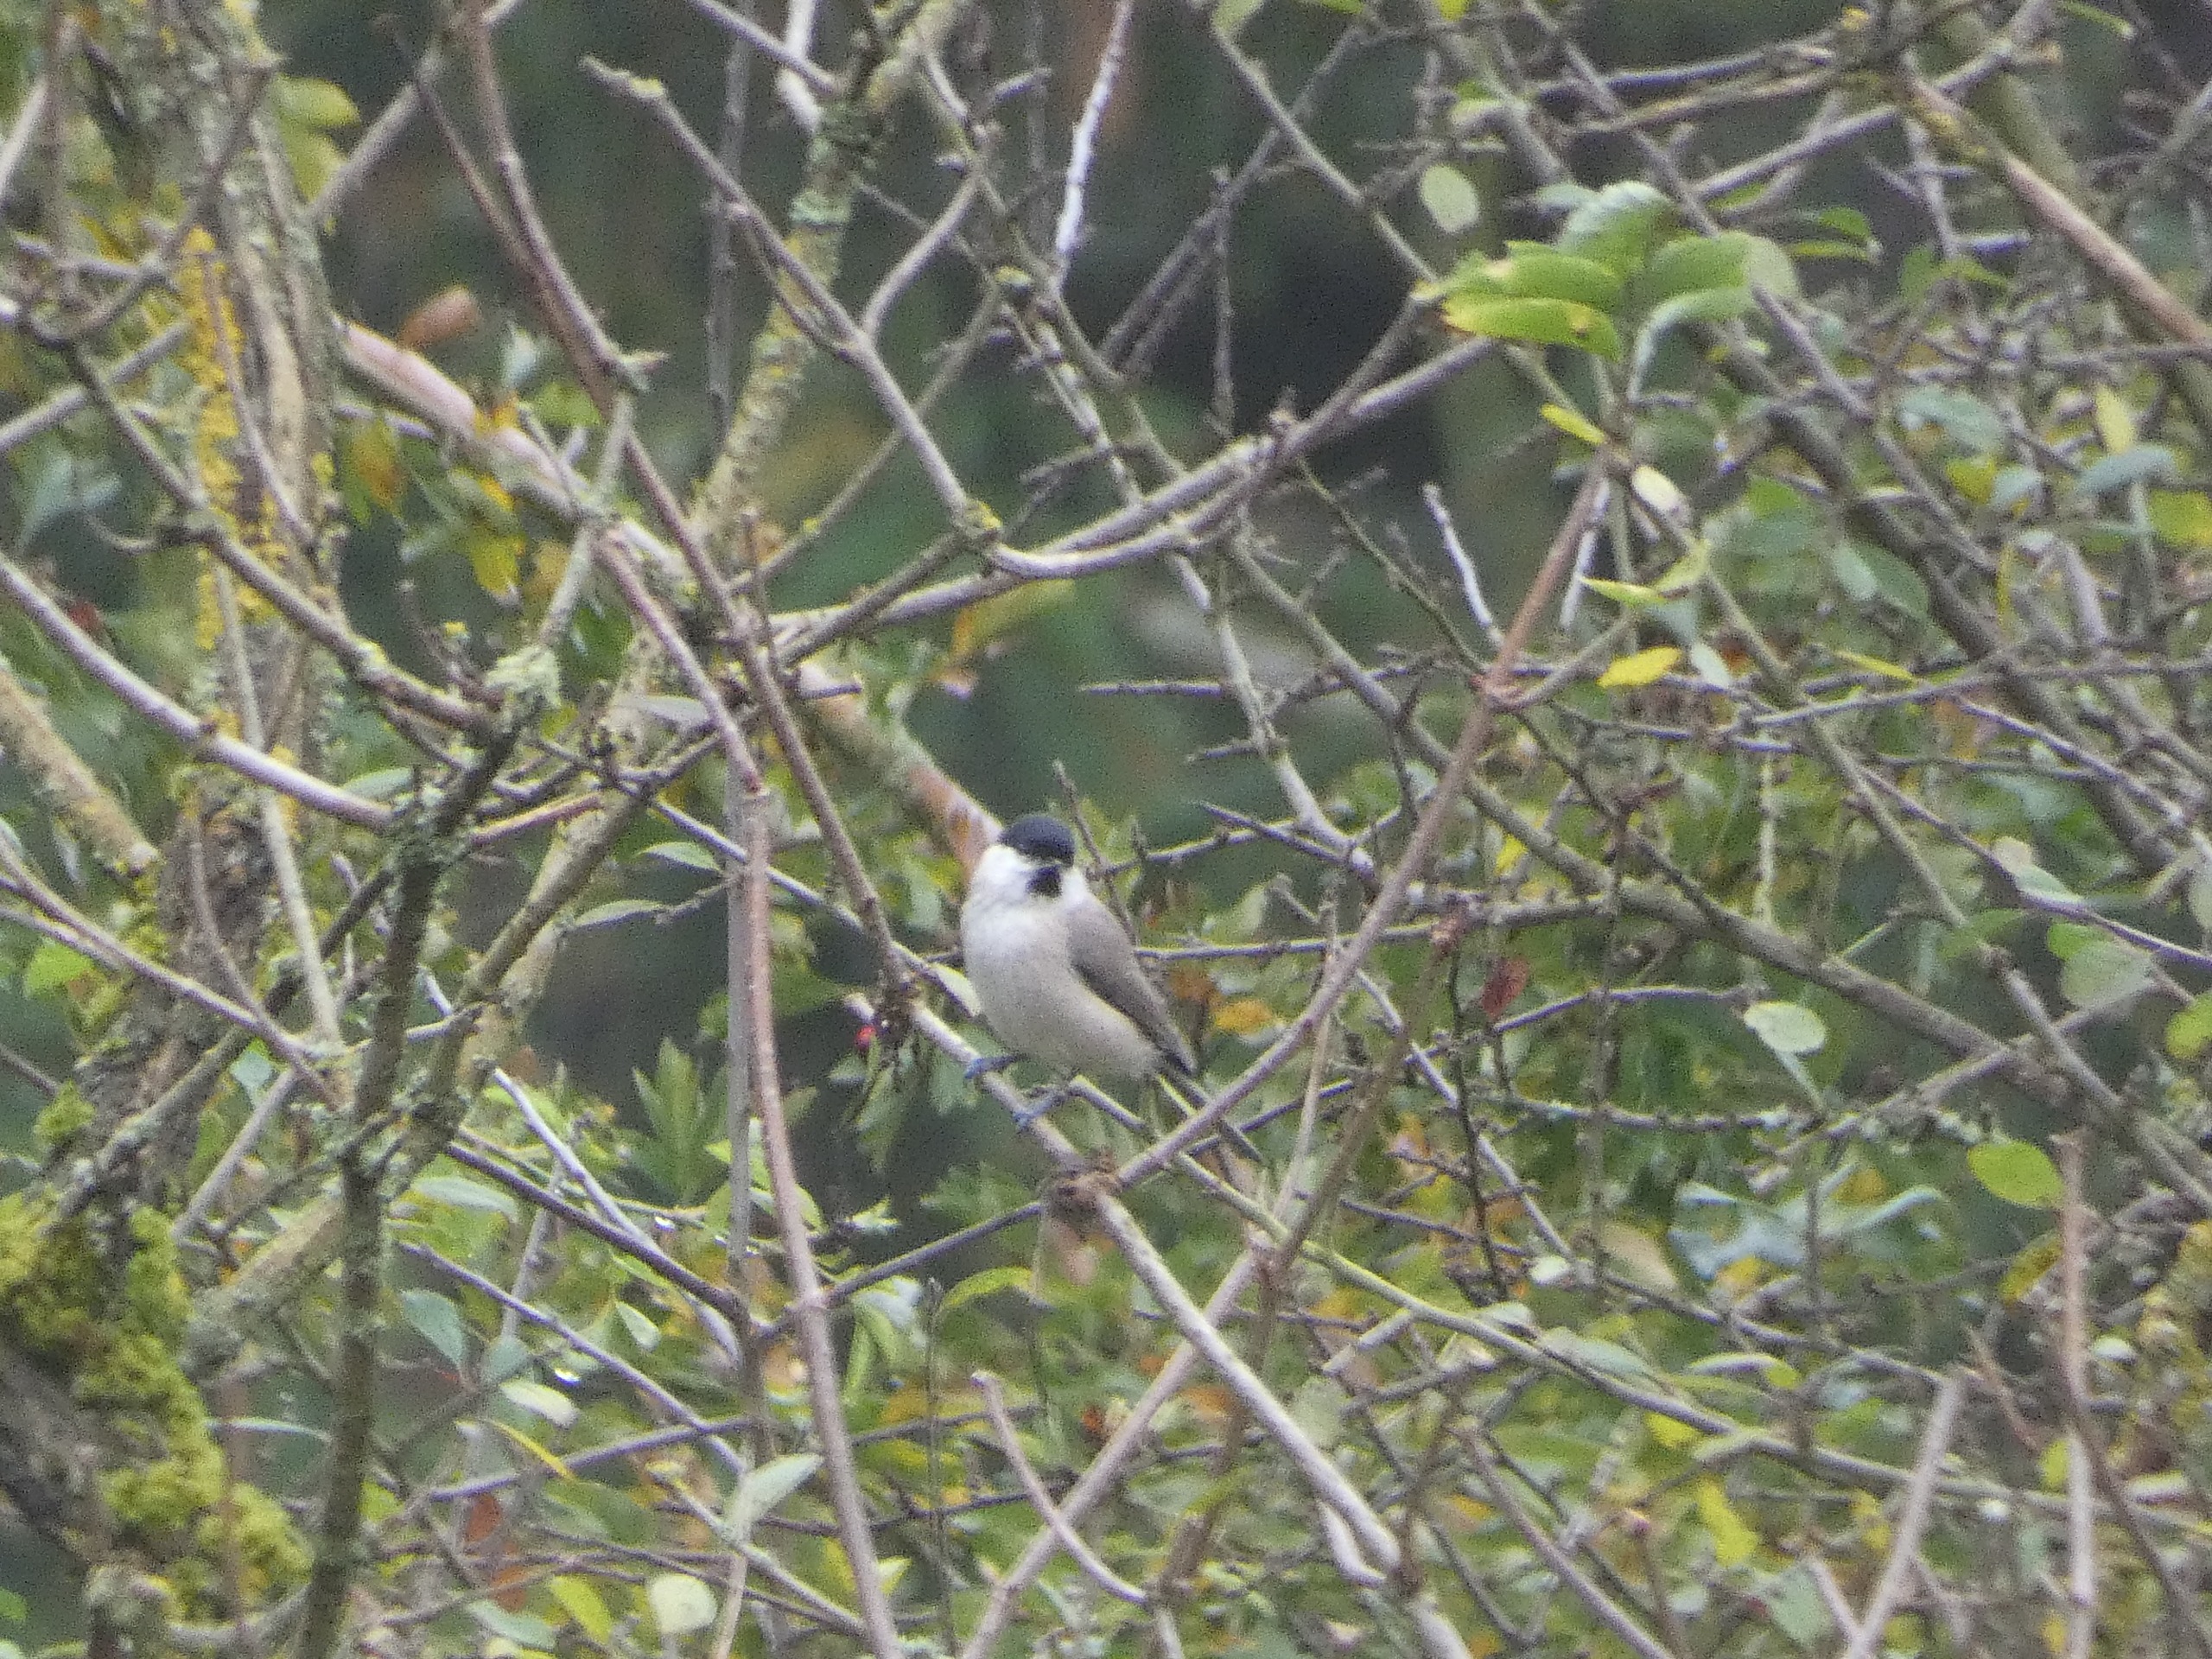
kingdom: Animalia
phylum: Chordata
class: Aves
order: Passeriformes
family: Paridae
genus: Poecile
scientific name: Poecile palustris
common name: Sumpmejse
